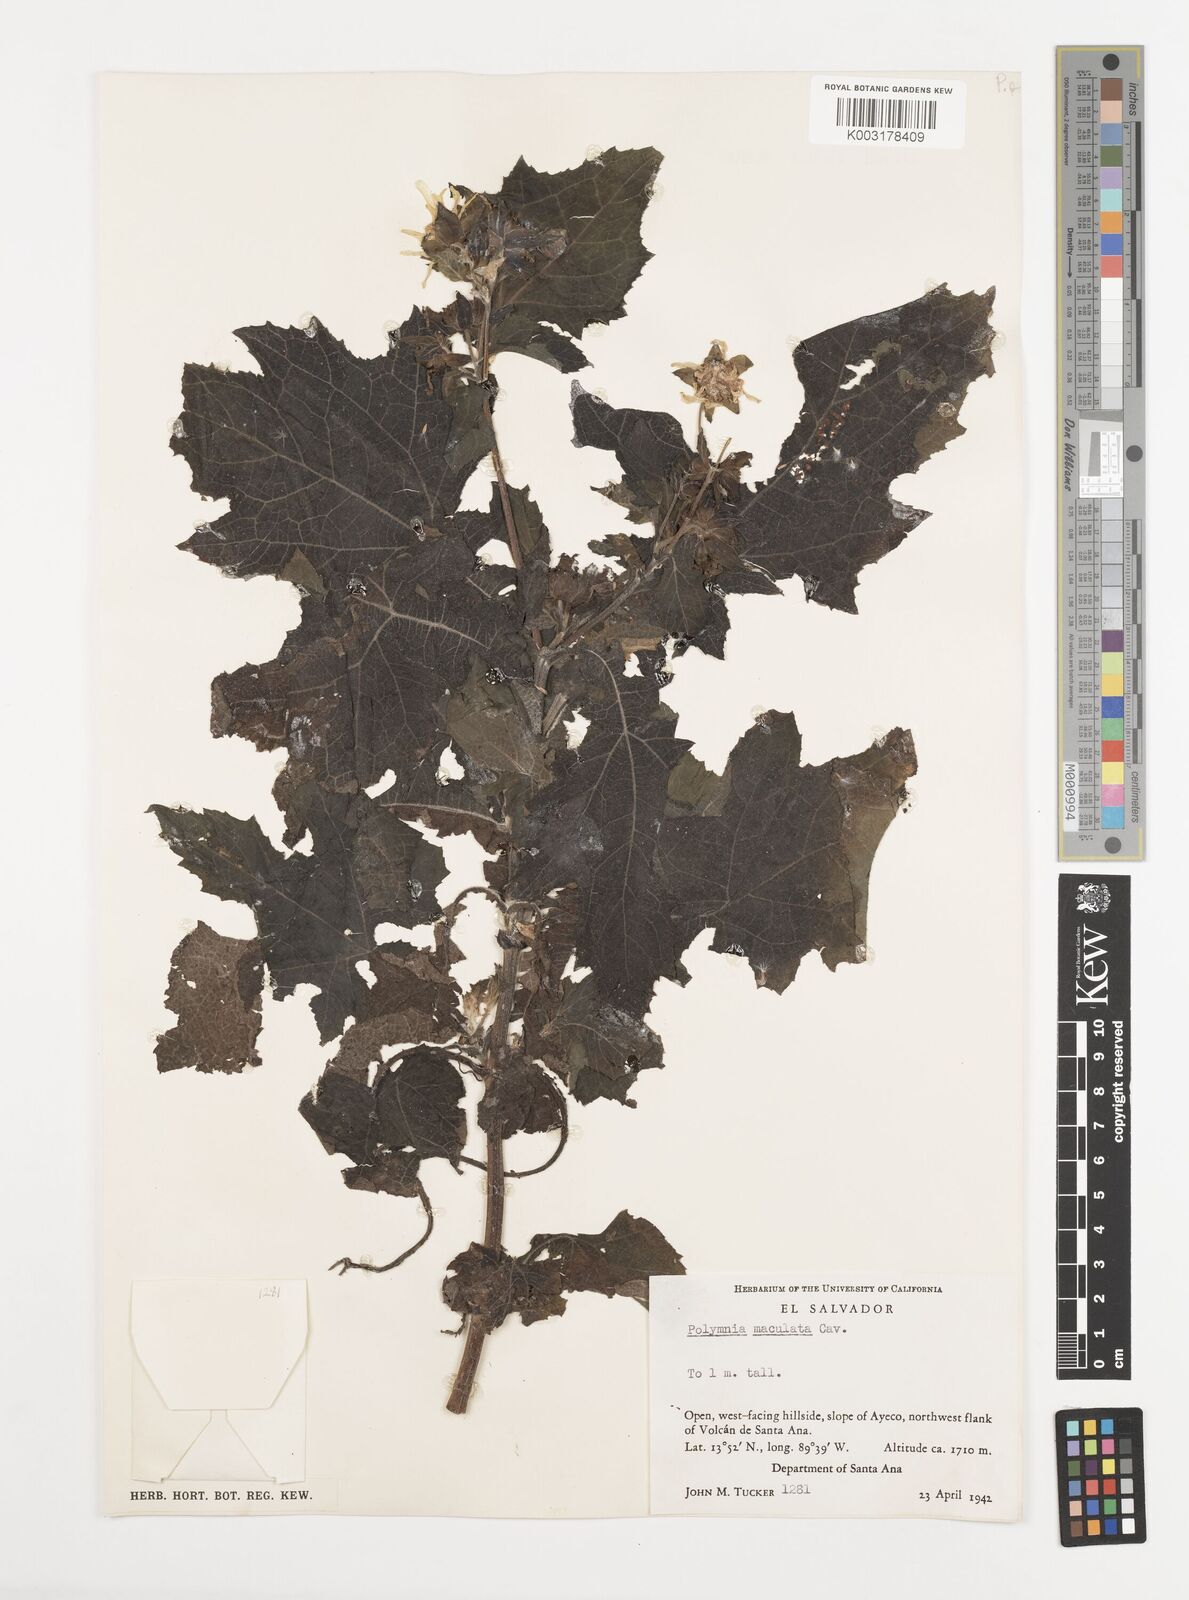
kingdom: Plantae
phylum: Tracheophyta
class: Magnoliopsida
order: Asterales
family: Asteraceae
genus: Smallanthus
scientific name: Smallanthus maculatus
